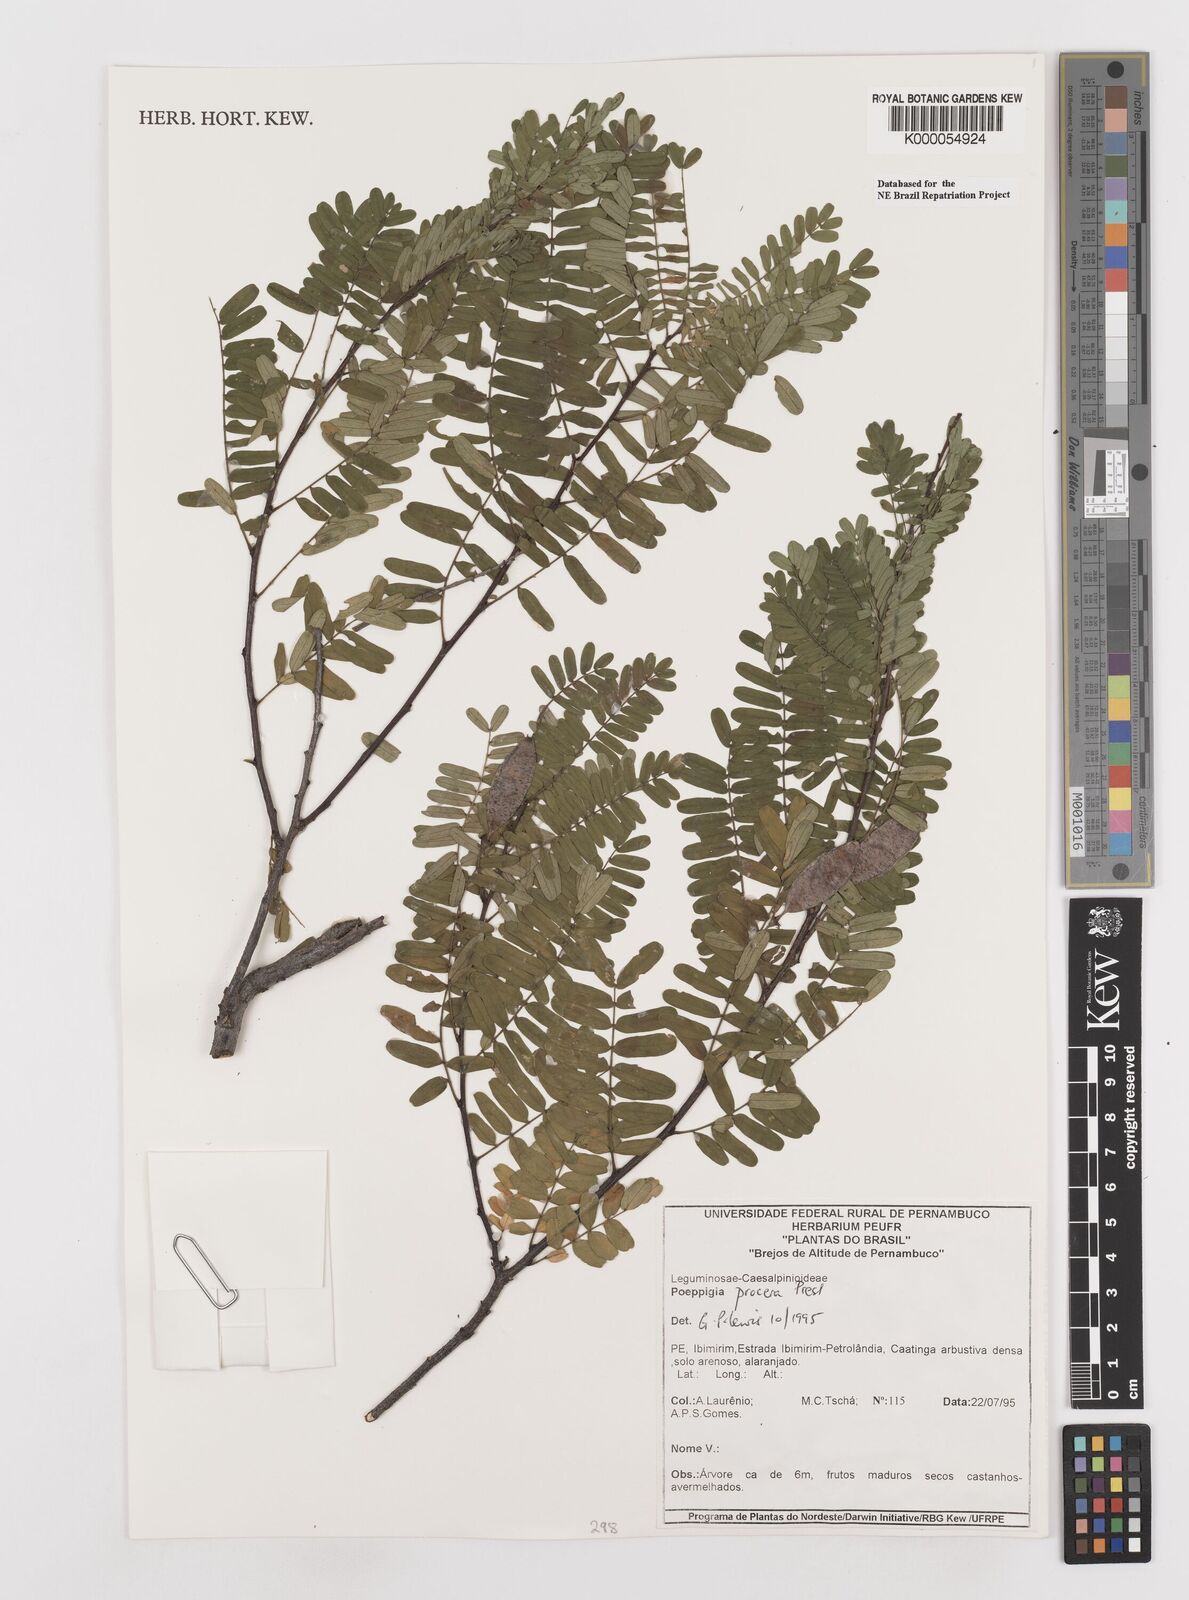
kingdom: Plantae
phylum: Tracheophyta
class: Magnoliopsida
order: Fabales
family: Fabaceae
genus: Poeppigia
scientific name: Poeppigia procera
